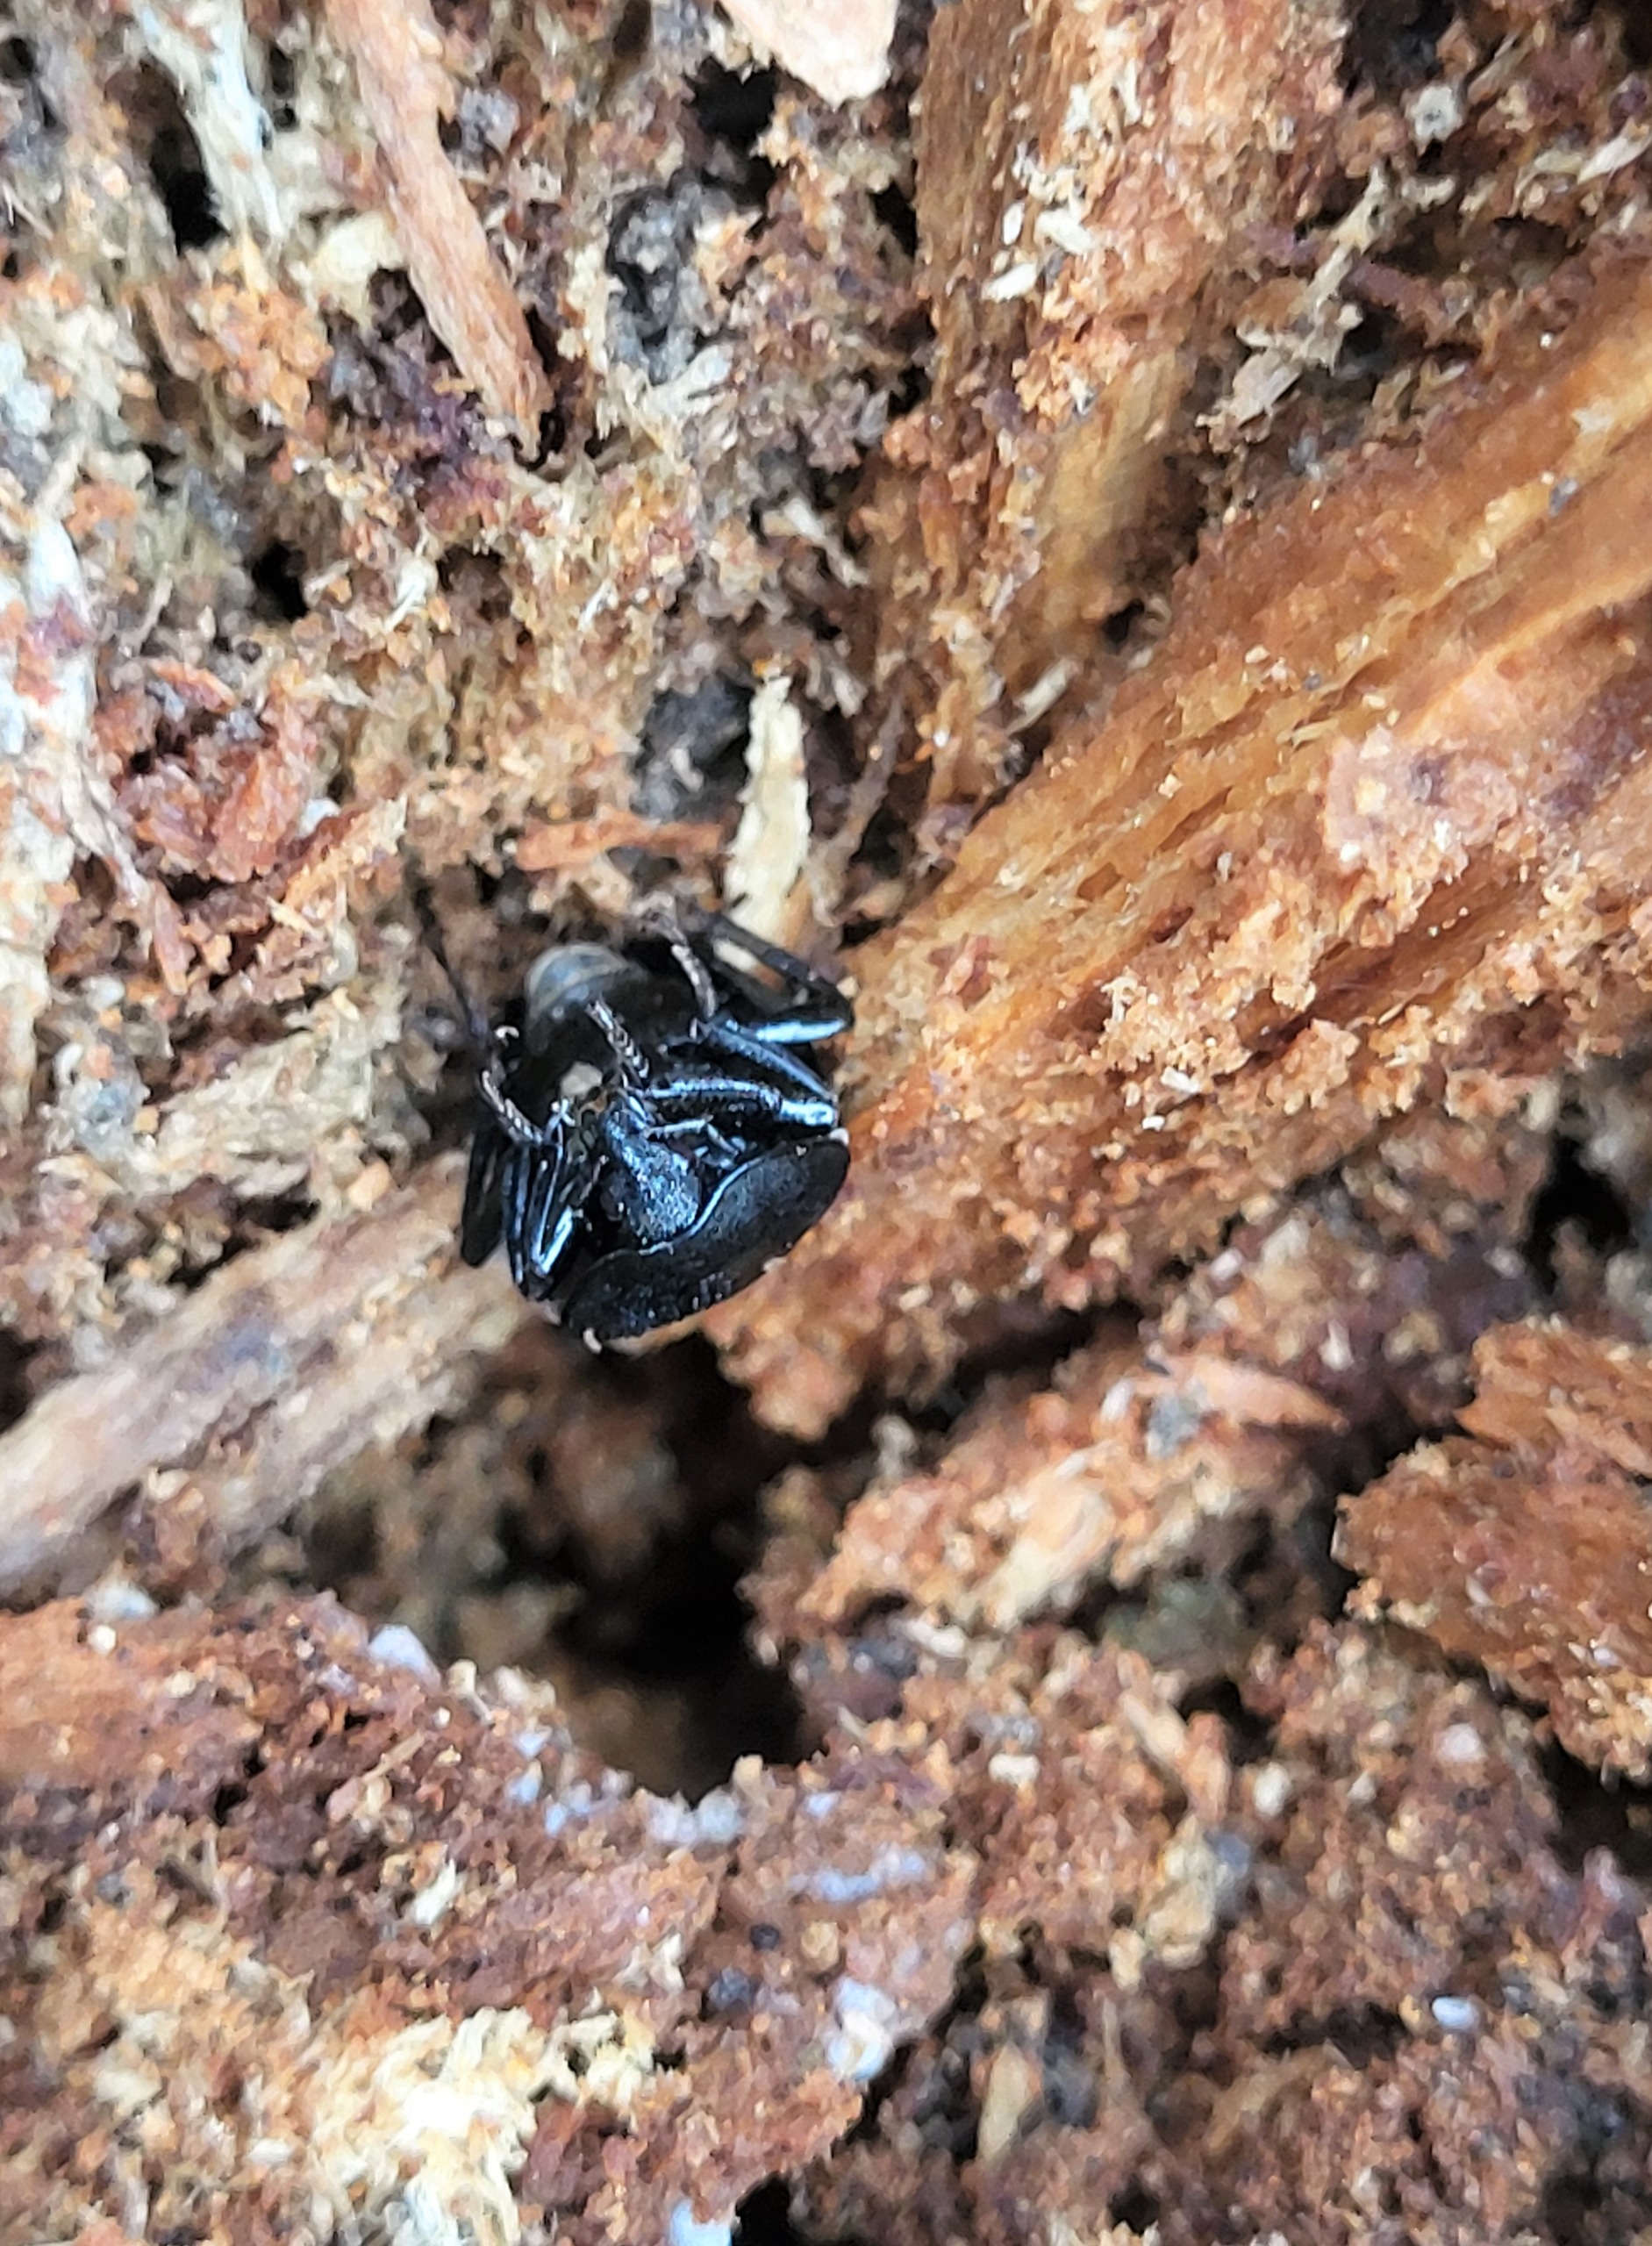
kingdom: Animalia
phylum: Arthropoda
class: Insecta
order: Coleoptera
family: Staphylinidae
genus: Silpha
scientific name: Silpha atrata
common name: Snegleådselbille
